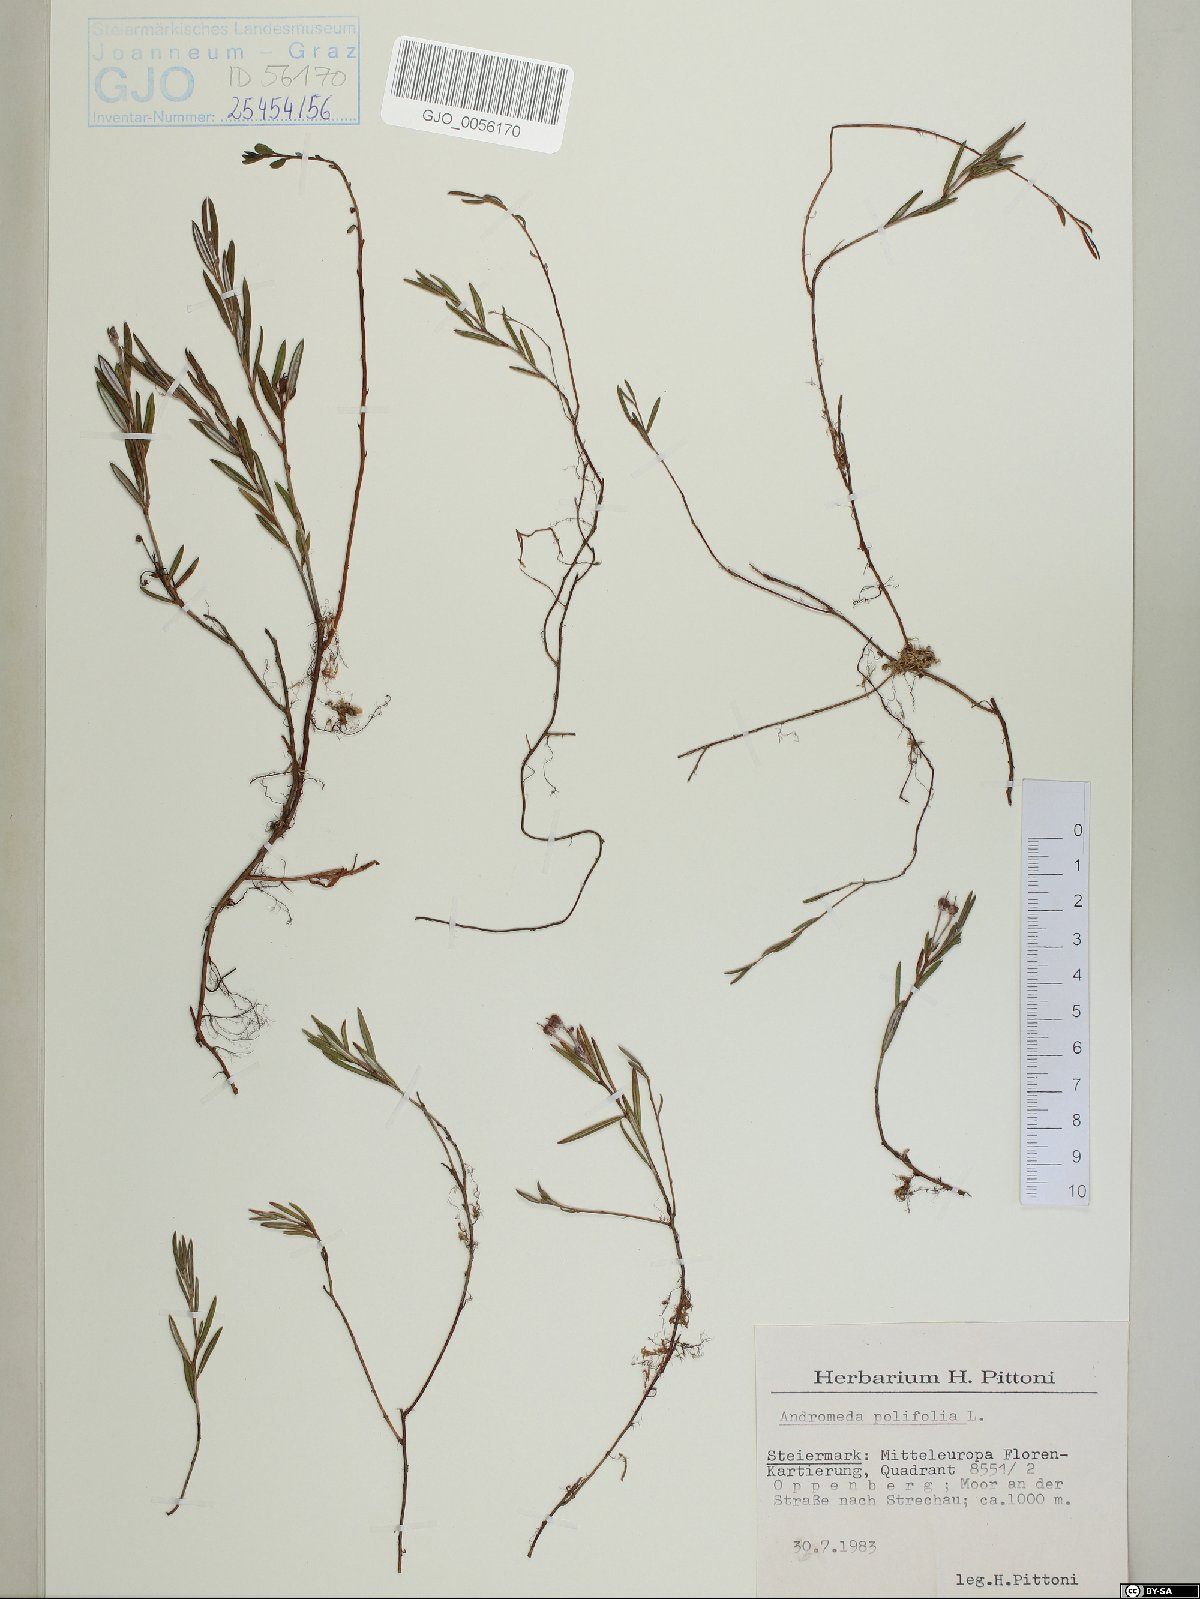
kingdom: Plantae
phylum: Tracheophyta
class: Magnoliopsida
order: Ericales
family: Ericaceae
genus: Andromeda
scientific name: Andromeda polifolia
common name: Bog-rosemary
